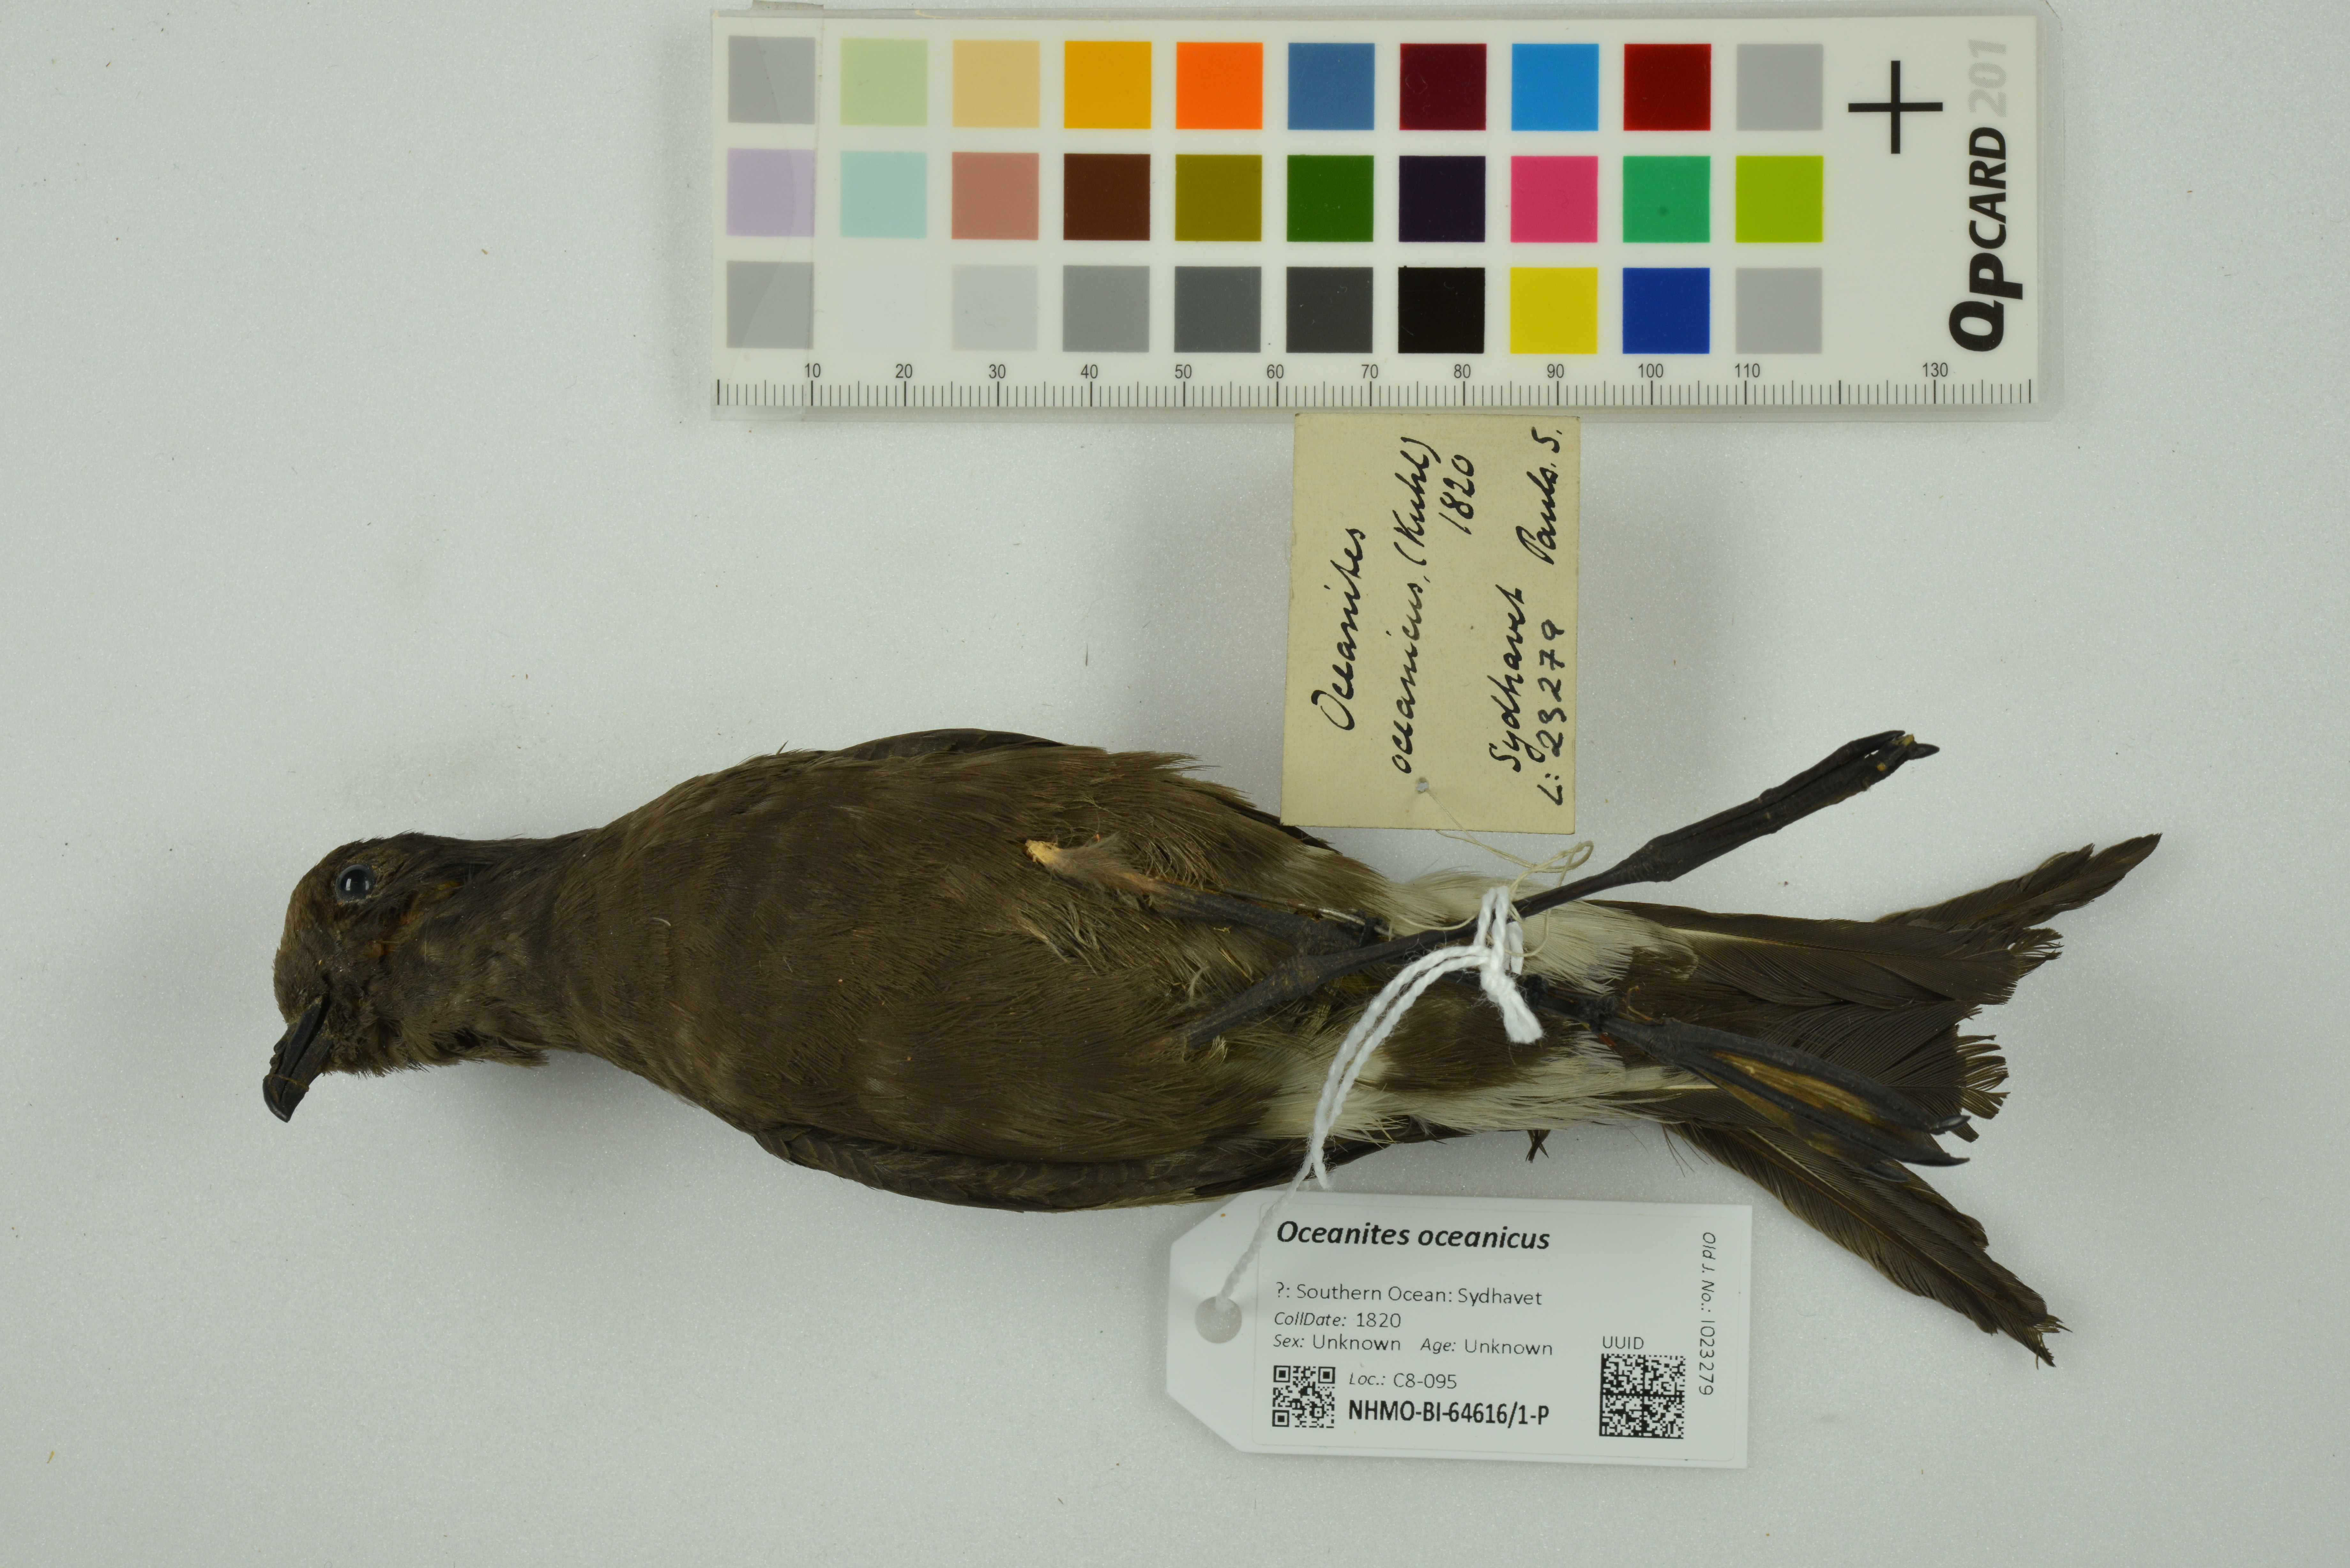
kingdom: Animalia
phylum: Chordata
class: Aves
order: Procellariiformes
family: Hydrobatidae
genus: Oceanites
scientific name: Oceanites oceanicus
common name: Wilson's storm petrel
